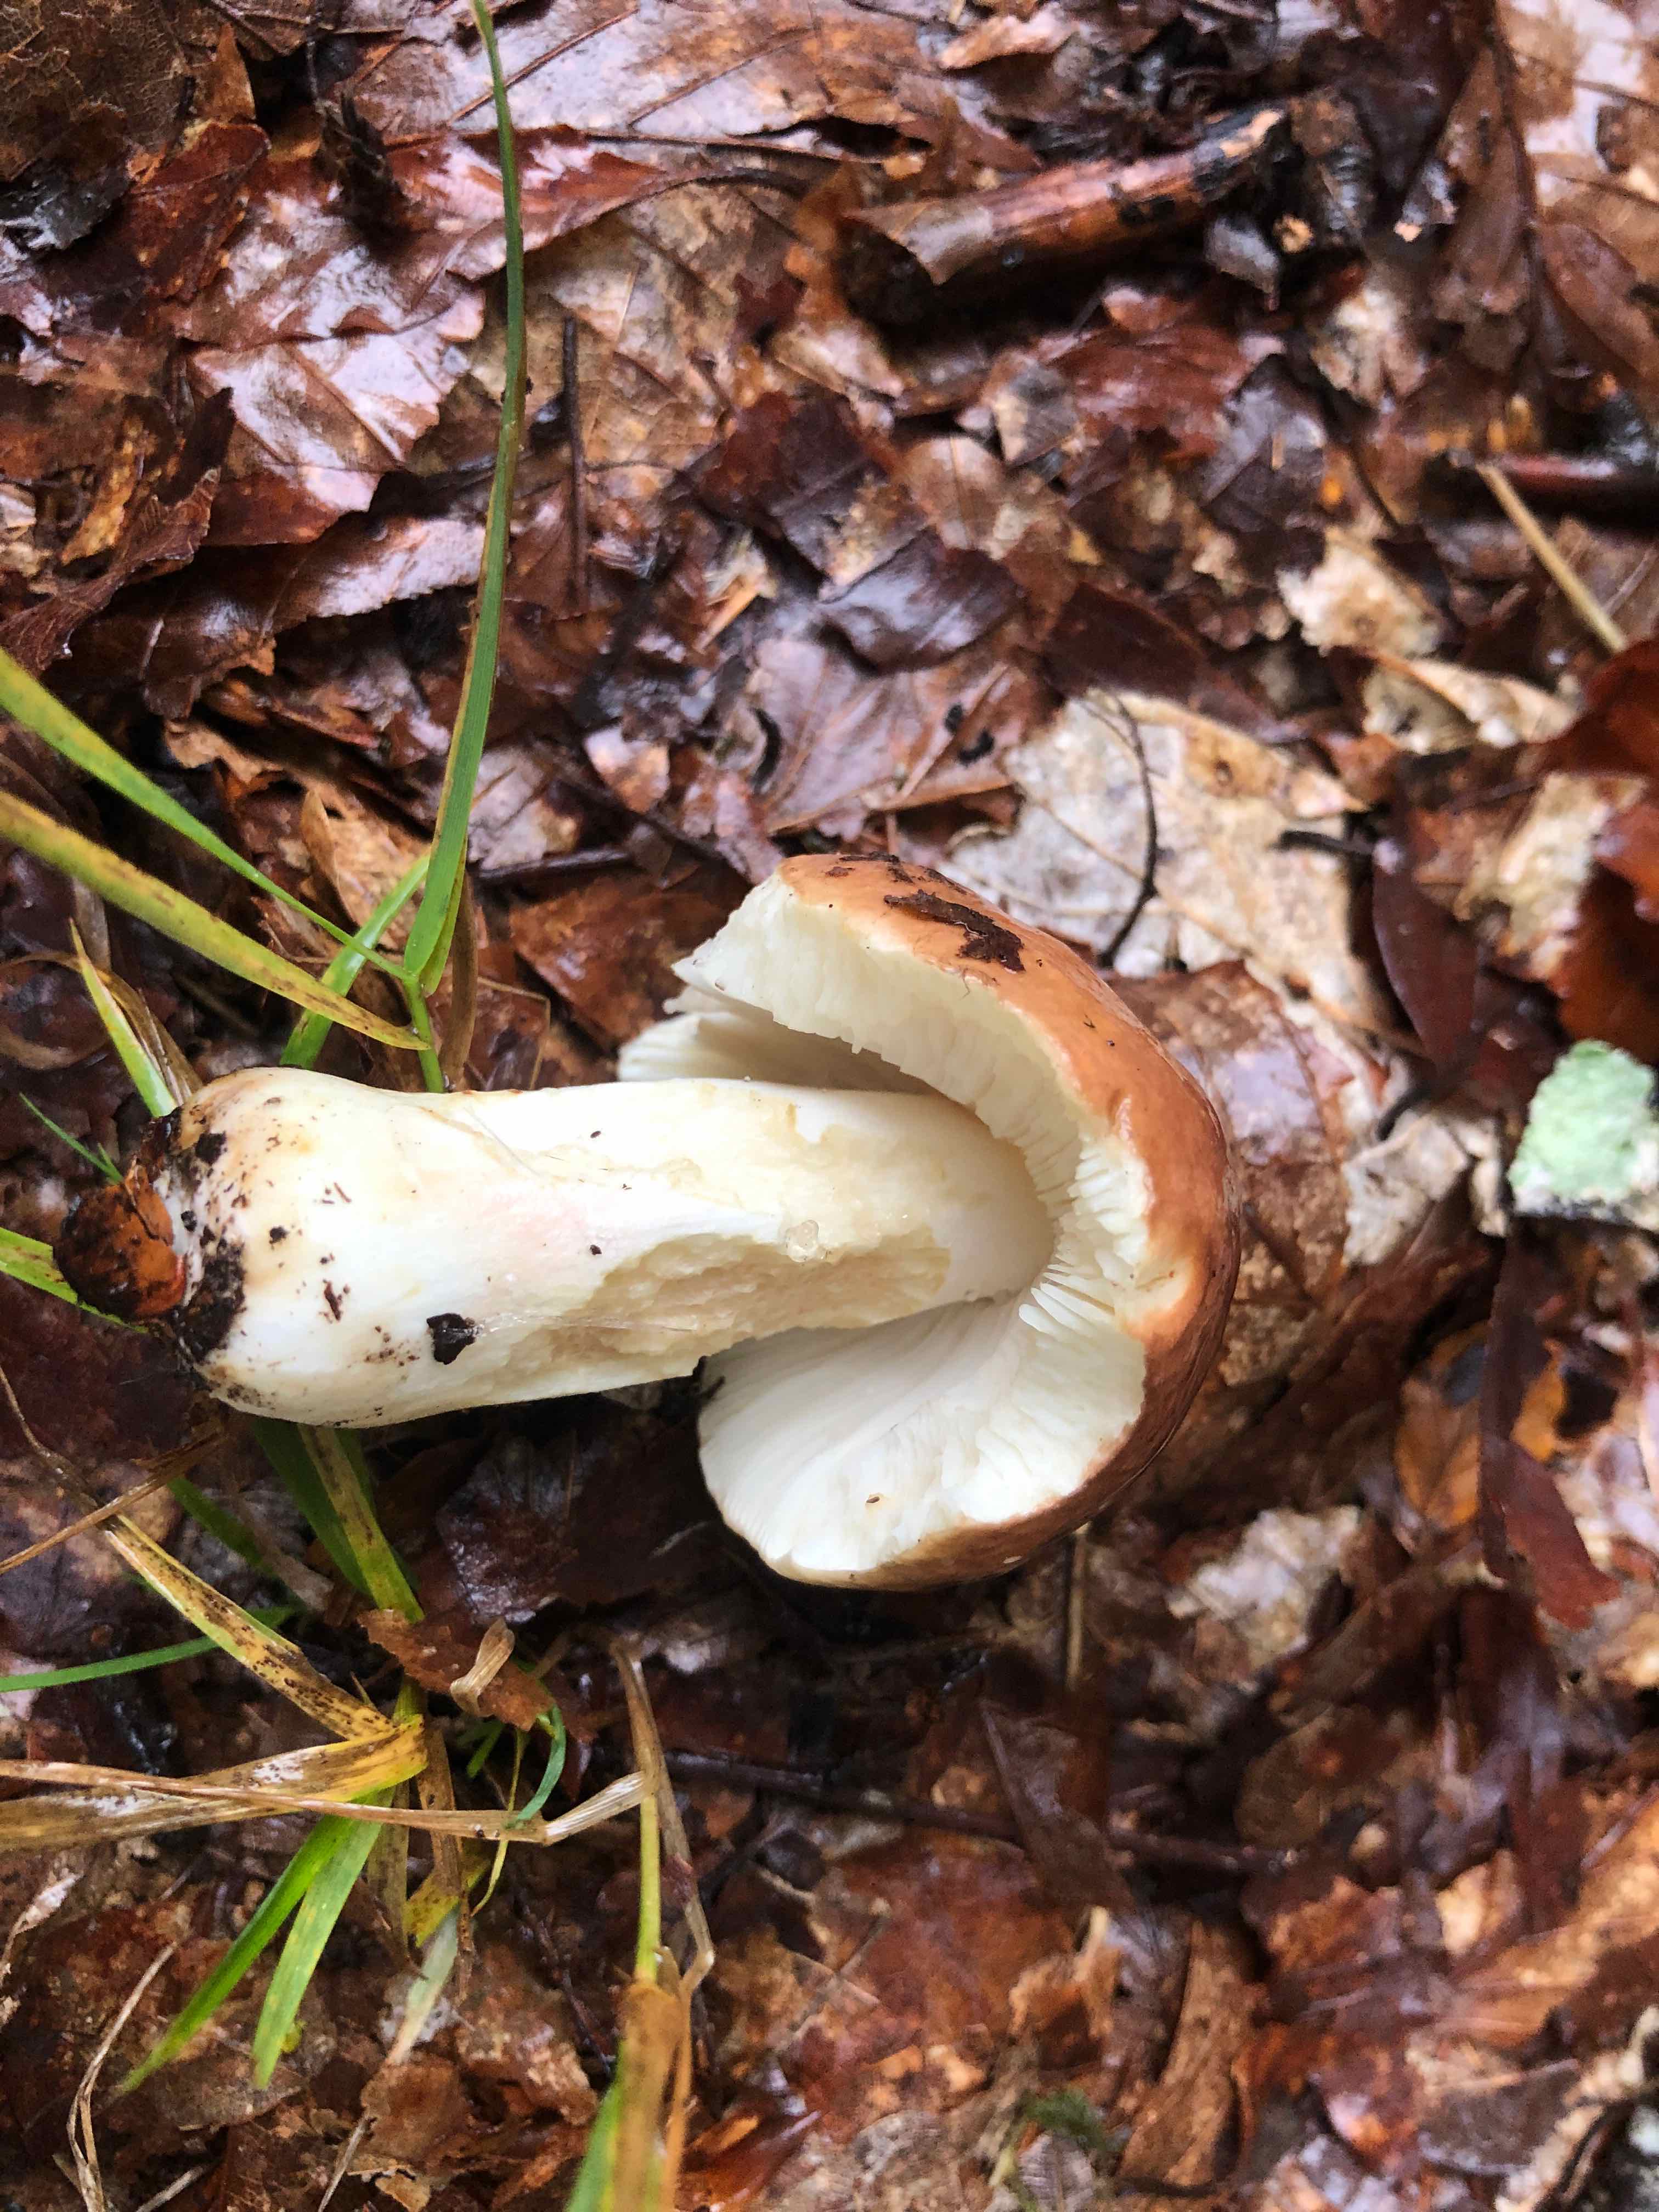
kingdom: Fungi
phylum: Basidiomycota
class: Agaricomycetes
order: Russulales
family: Russulaceae
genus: Russula
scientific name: Russula
